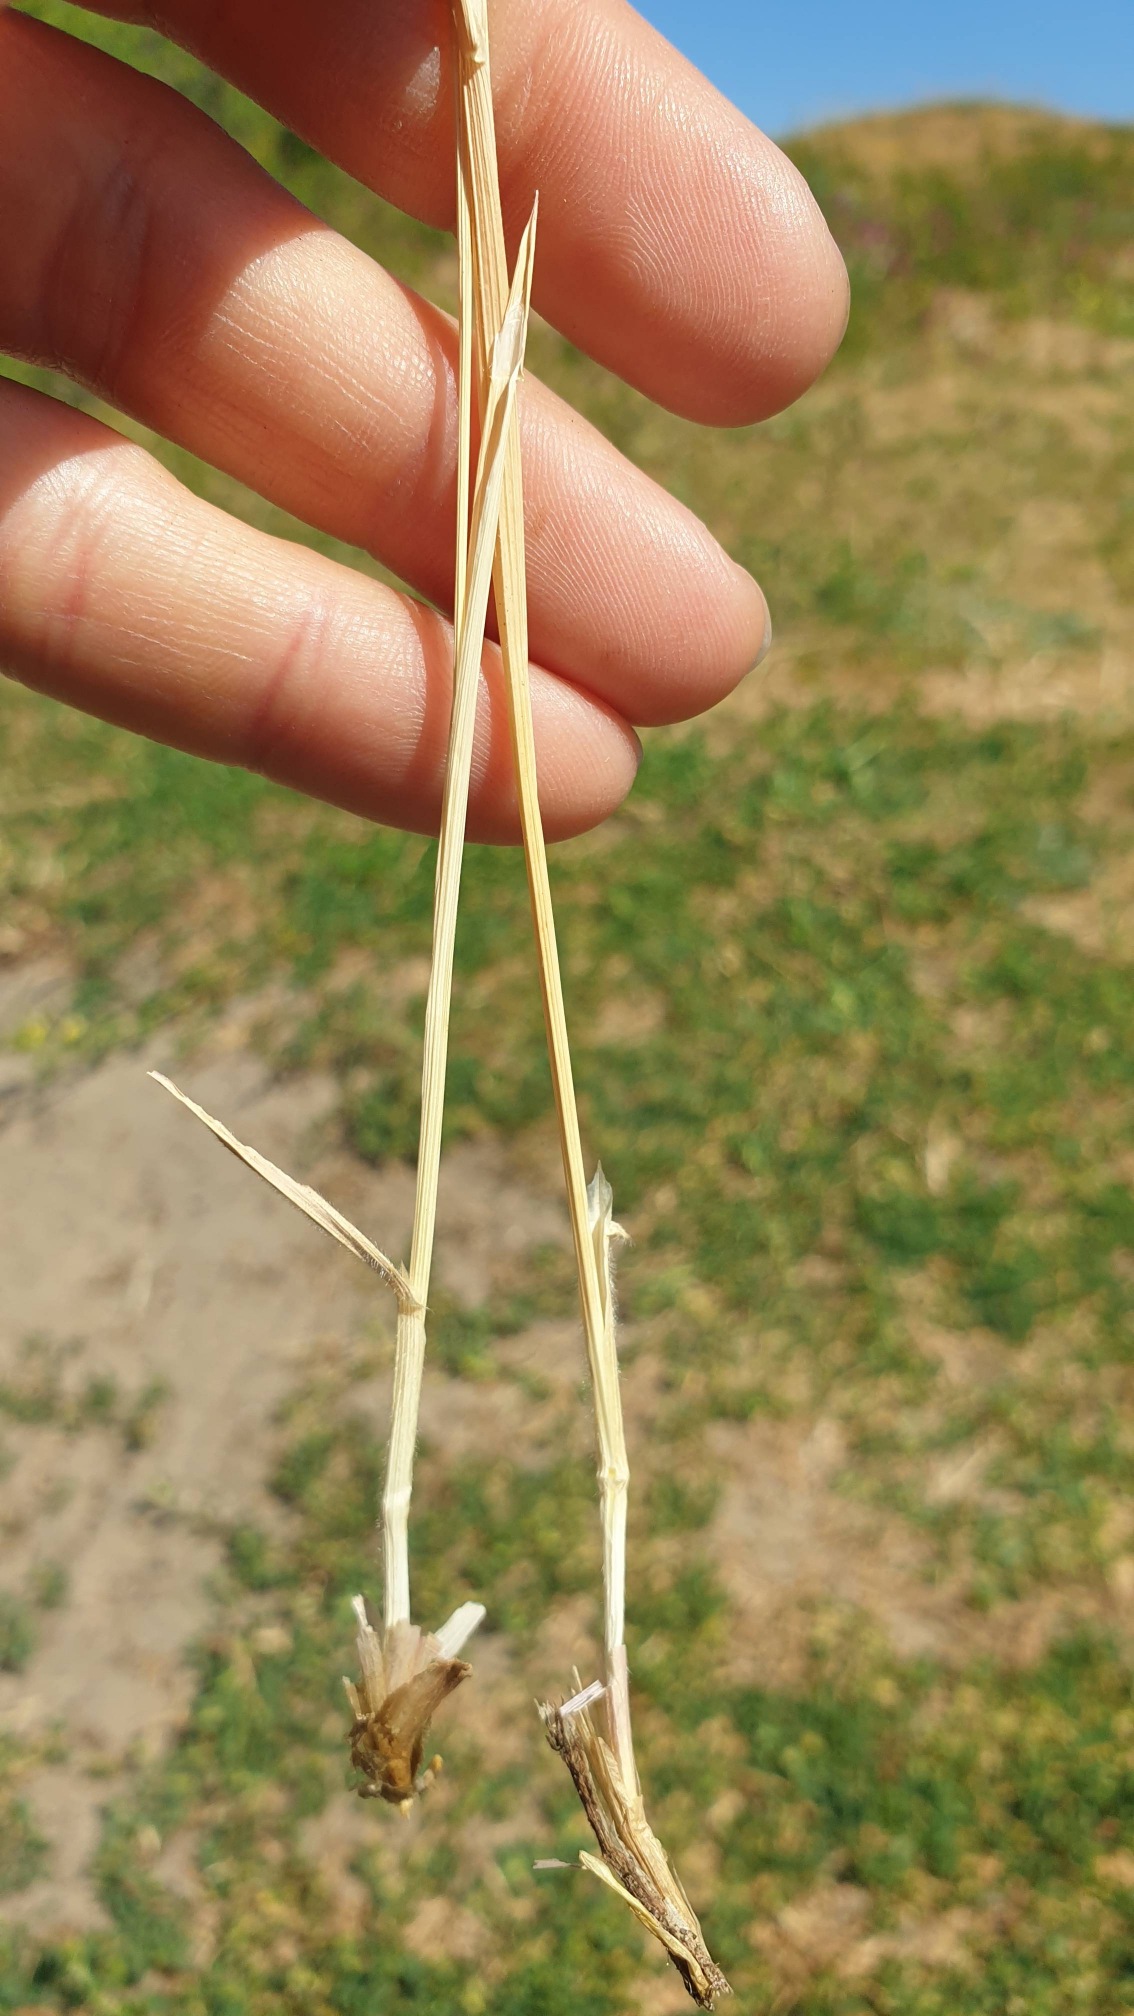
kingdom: Plantae
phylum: Tracheophyta
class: Liliopsida
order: Poales
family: Poaceae
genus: Avenula
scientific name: Avenula pubescens
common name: Dunet havre
